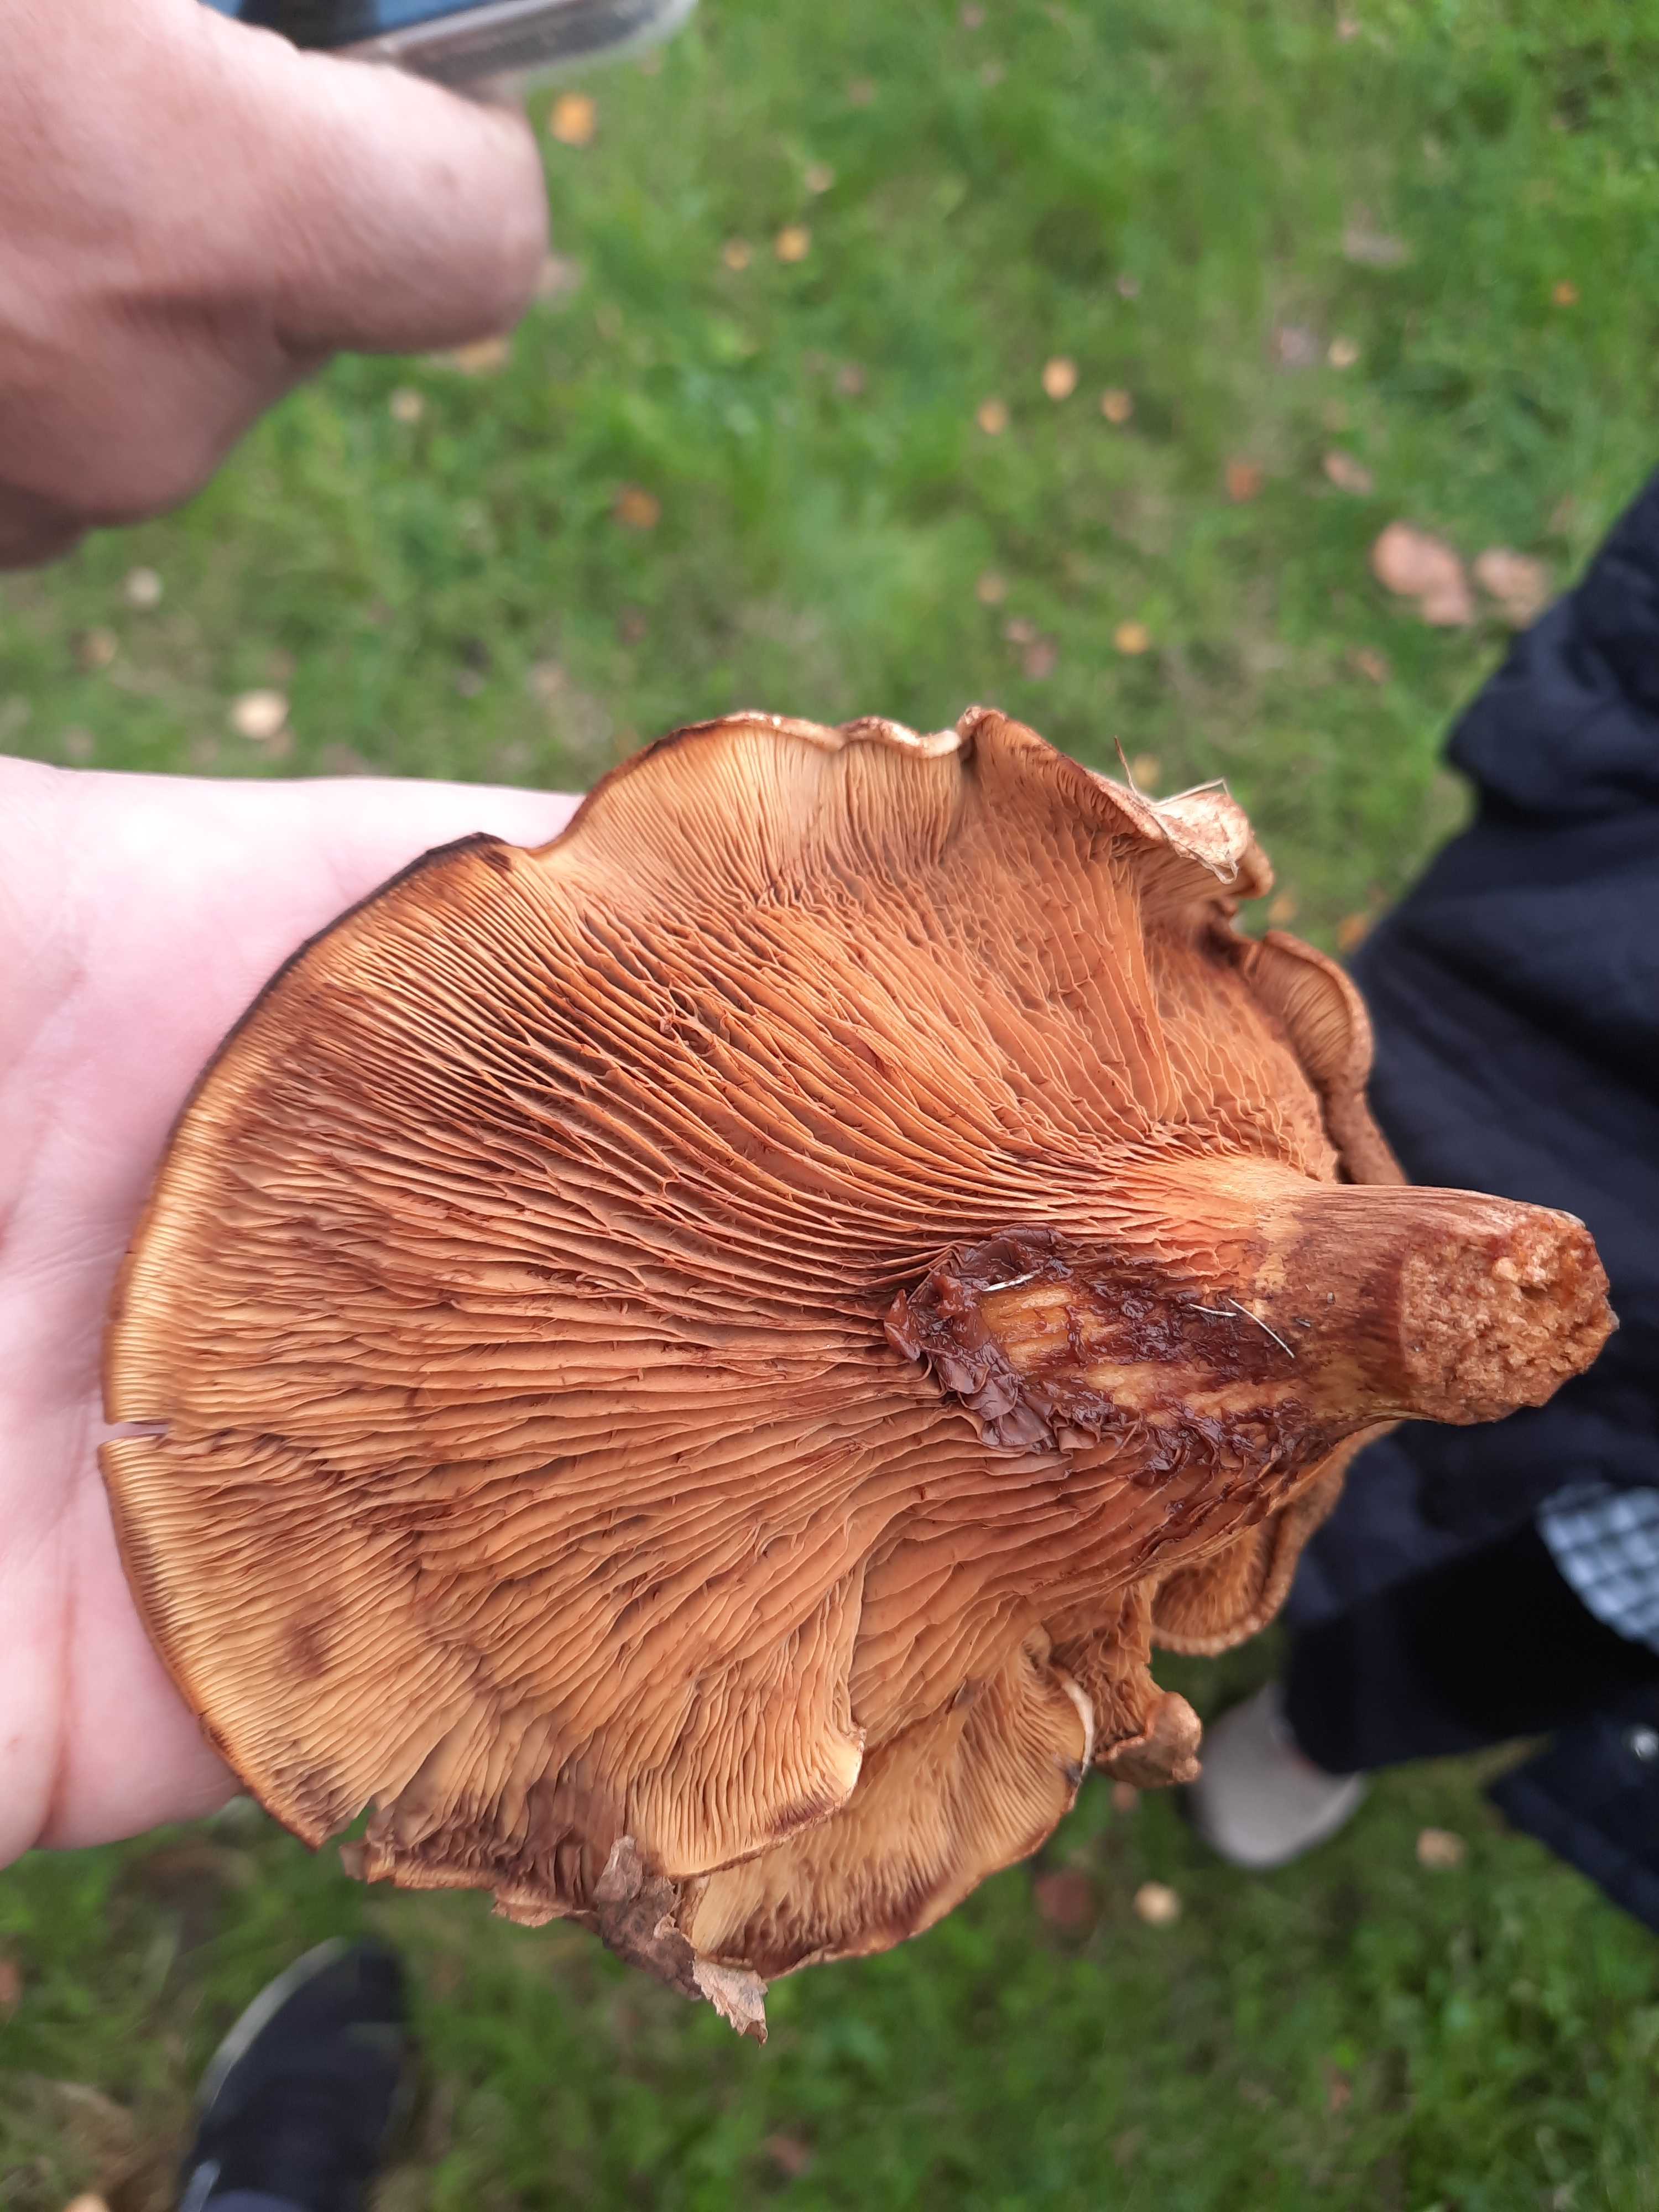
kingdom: Fungi
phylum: Basidiomycota
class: Agaricomycetes
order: Boletales
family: Paxillaceae
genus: Paxillus
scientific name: Paxillus involutus
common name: almindelig netbladhat
